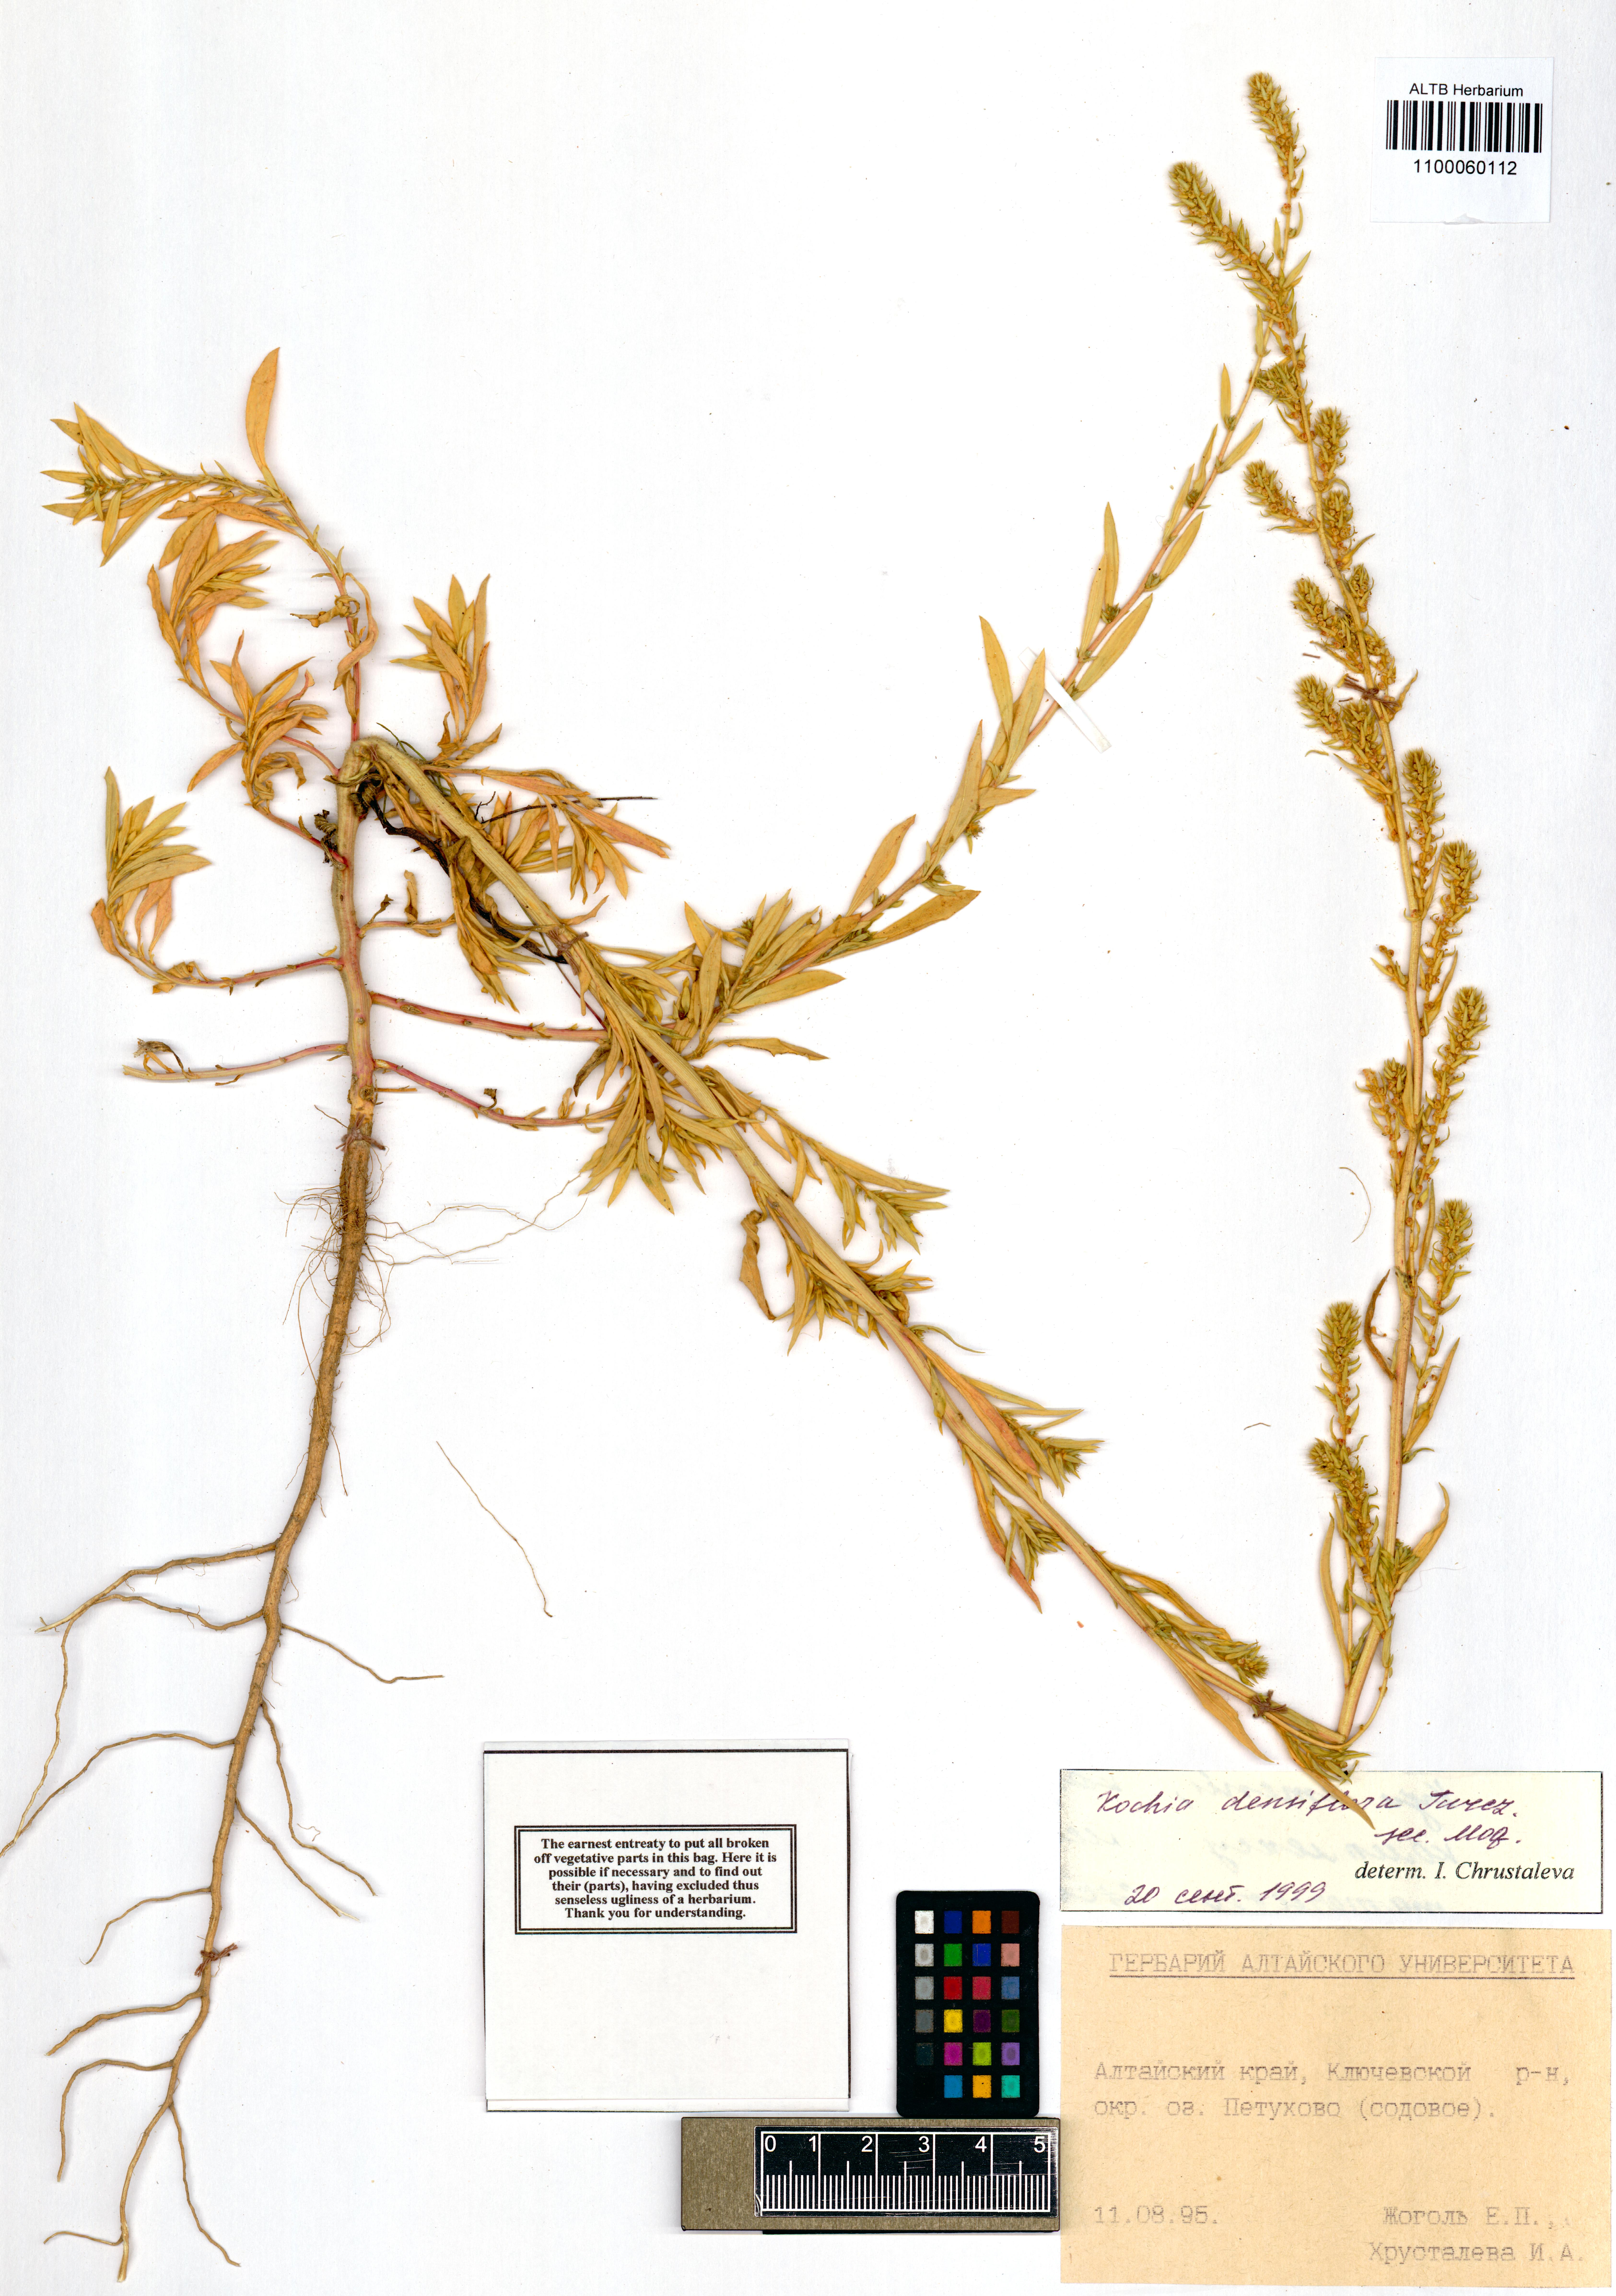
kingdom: Plantae
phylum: Tracheophyta
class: Magnoliopsida
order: Caryophyllales
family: Amaranthaceae
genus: Bassia
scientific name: Bassia scoparia
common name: Belvedere
